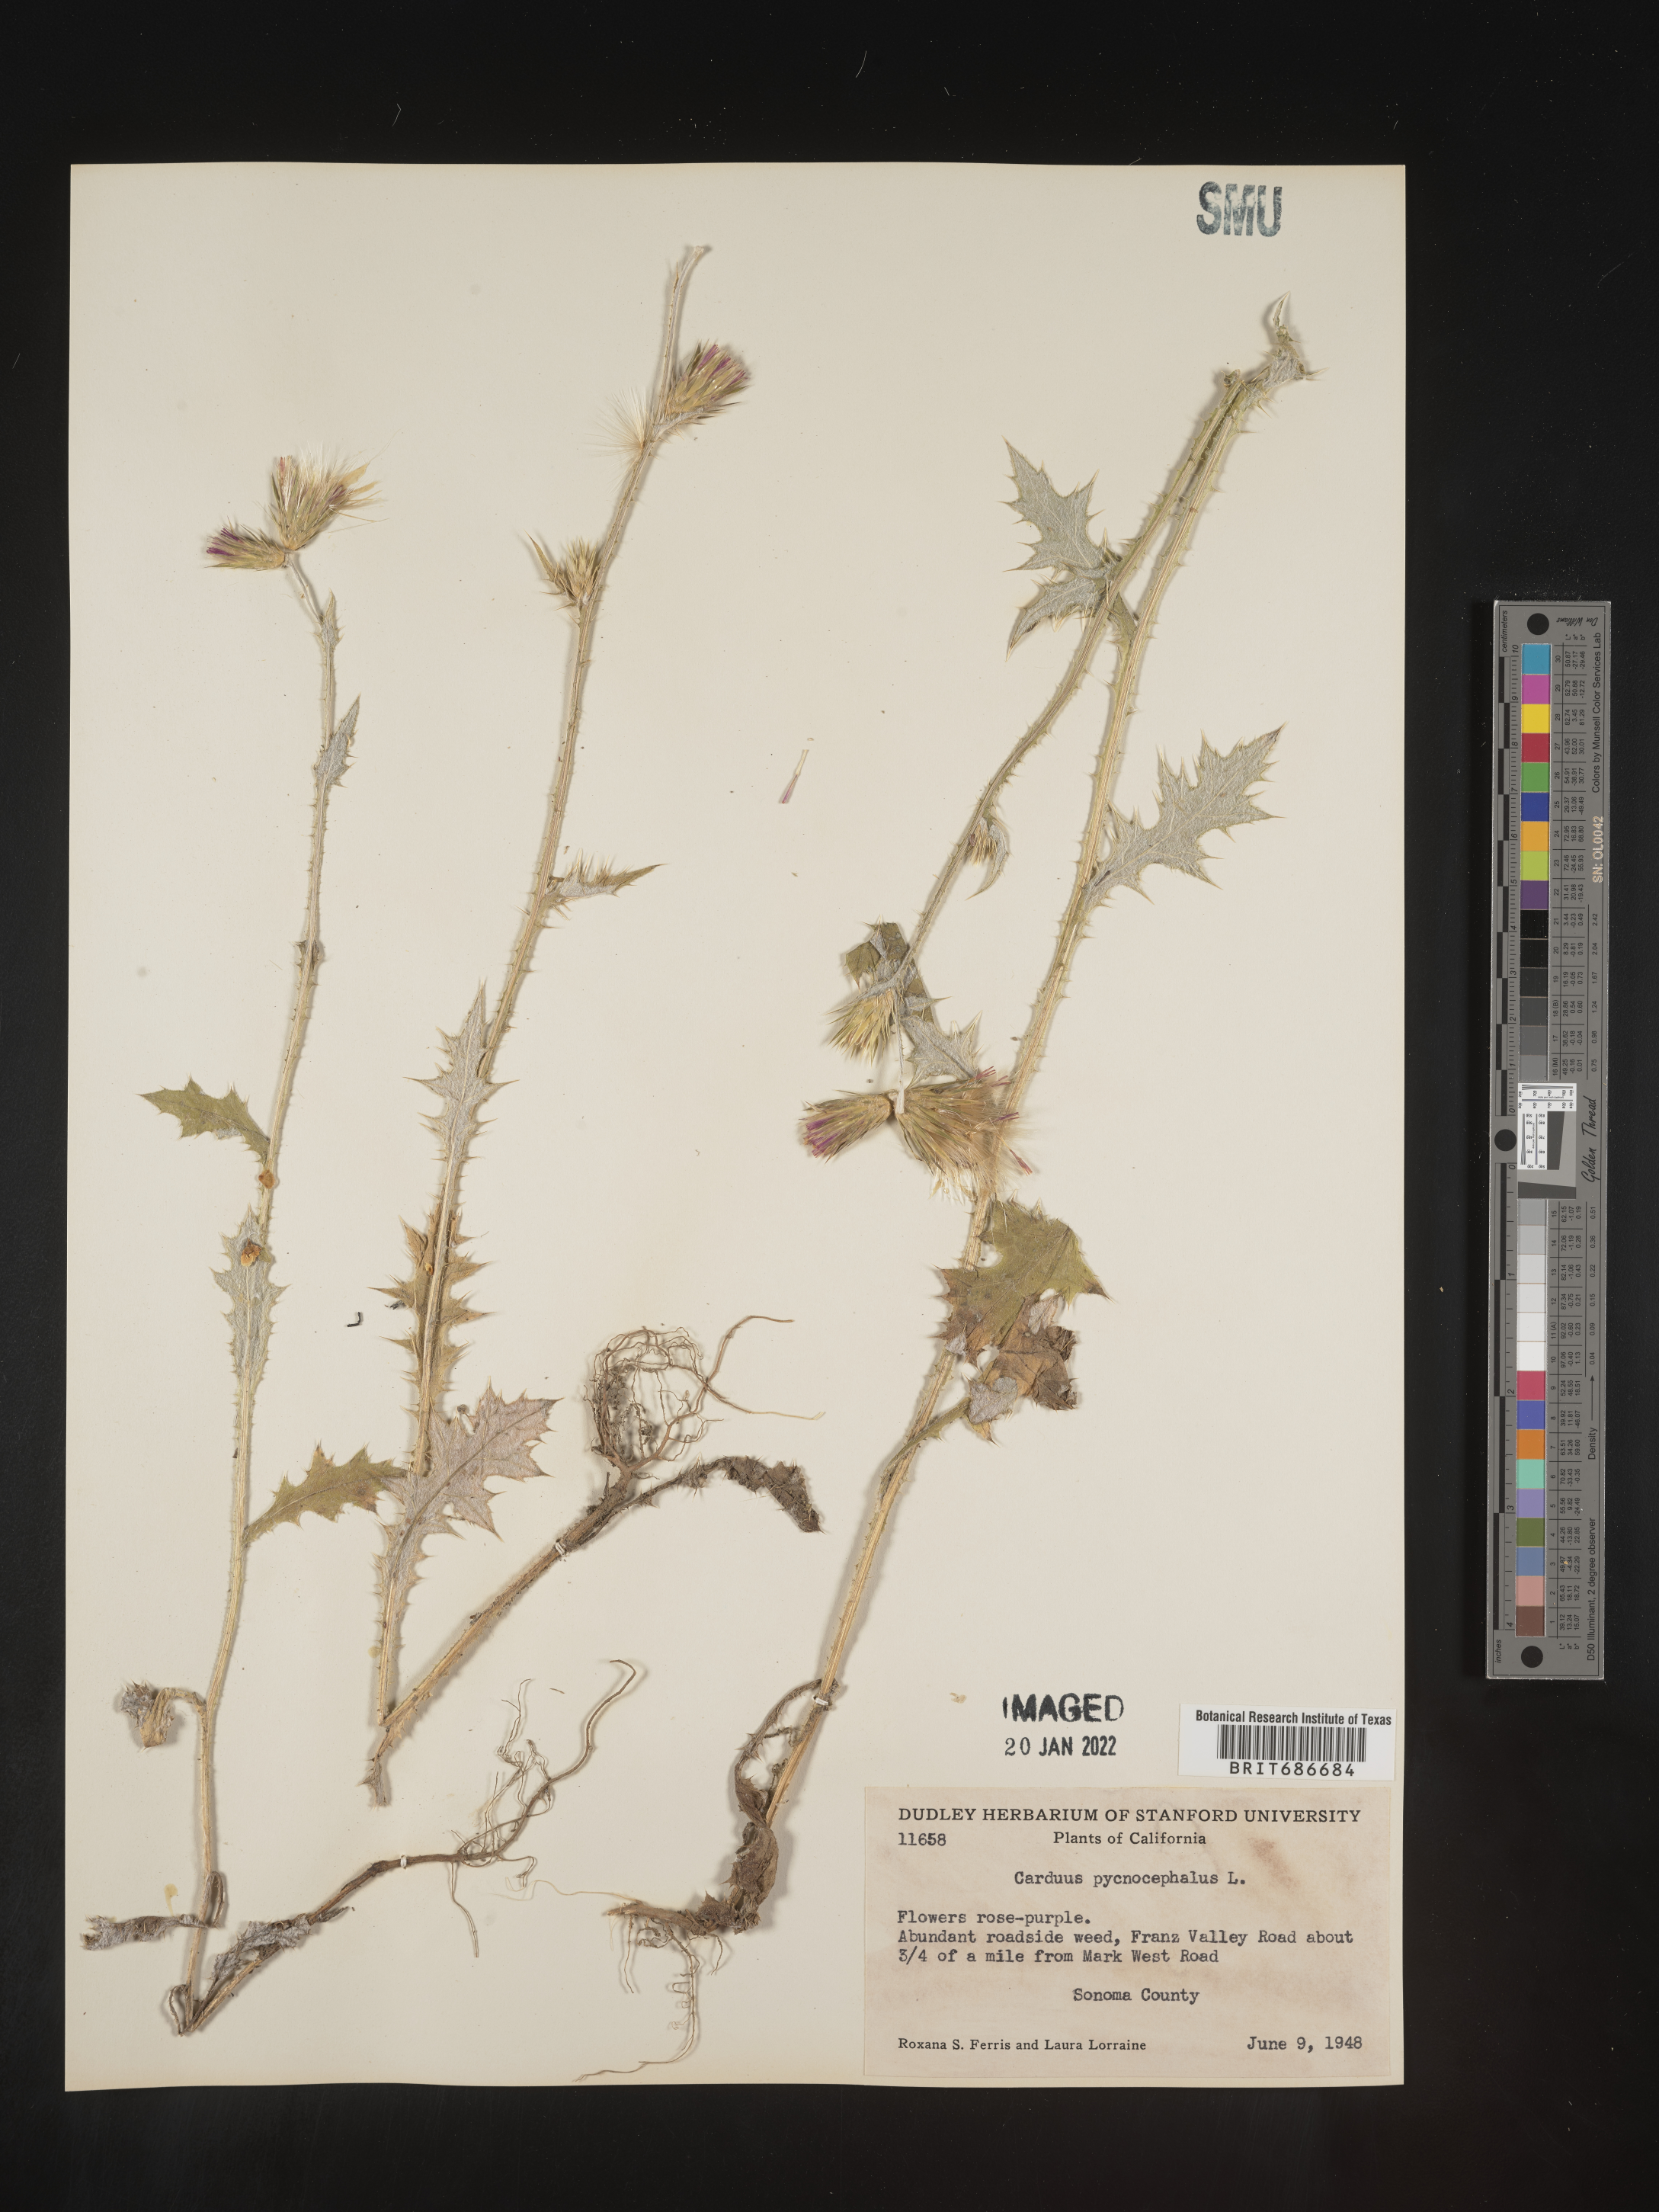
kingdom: Plantae
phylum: Tracheophyta
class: Magnoliopsida
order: Asterales
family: Asteraceae
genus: Carduus
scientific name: Carduus cephalanthus
